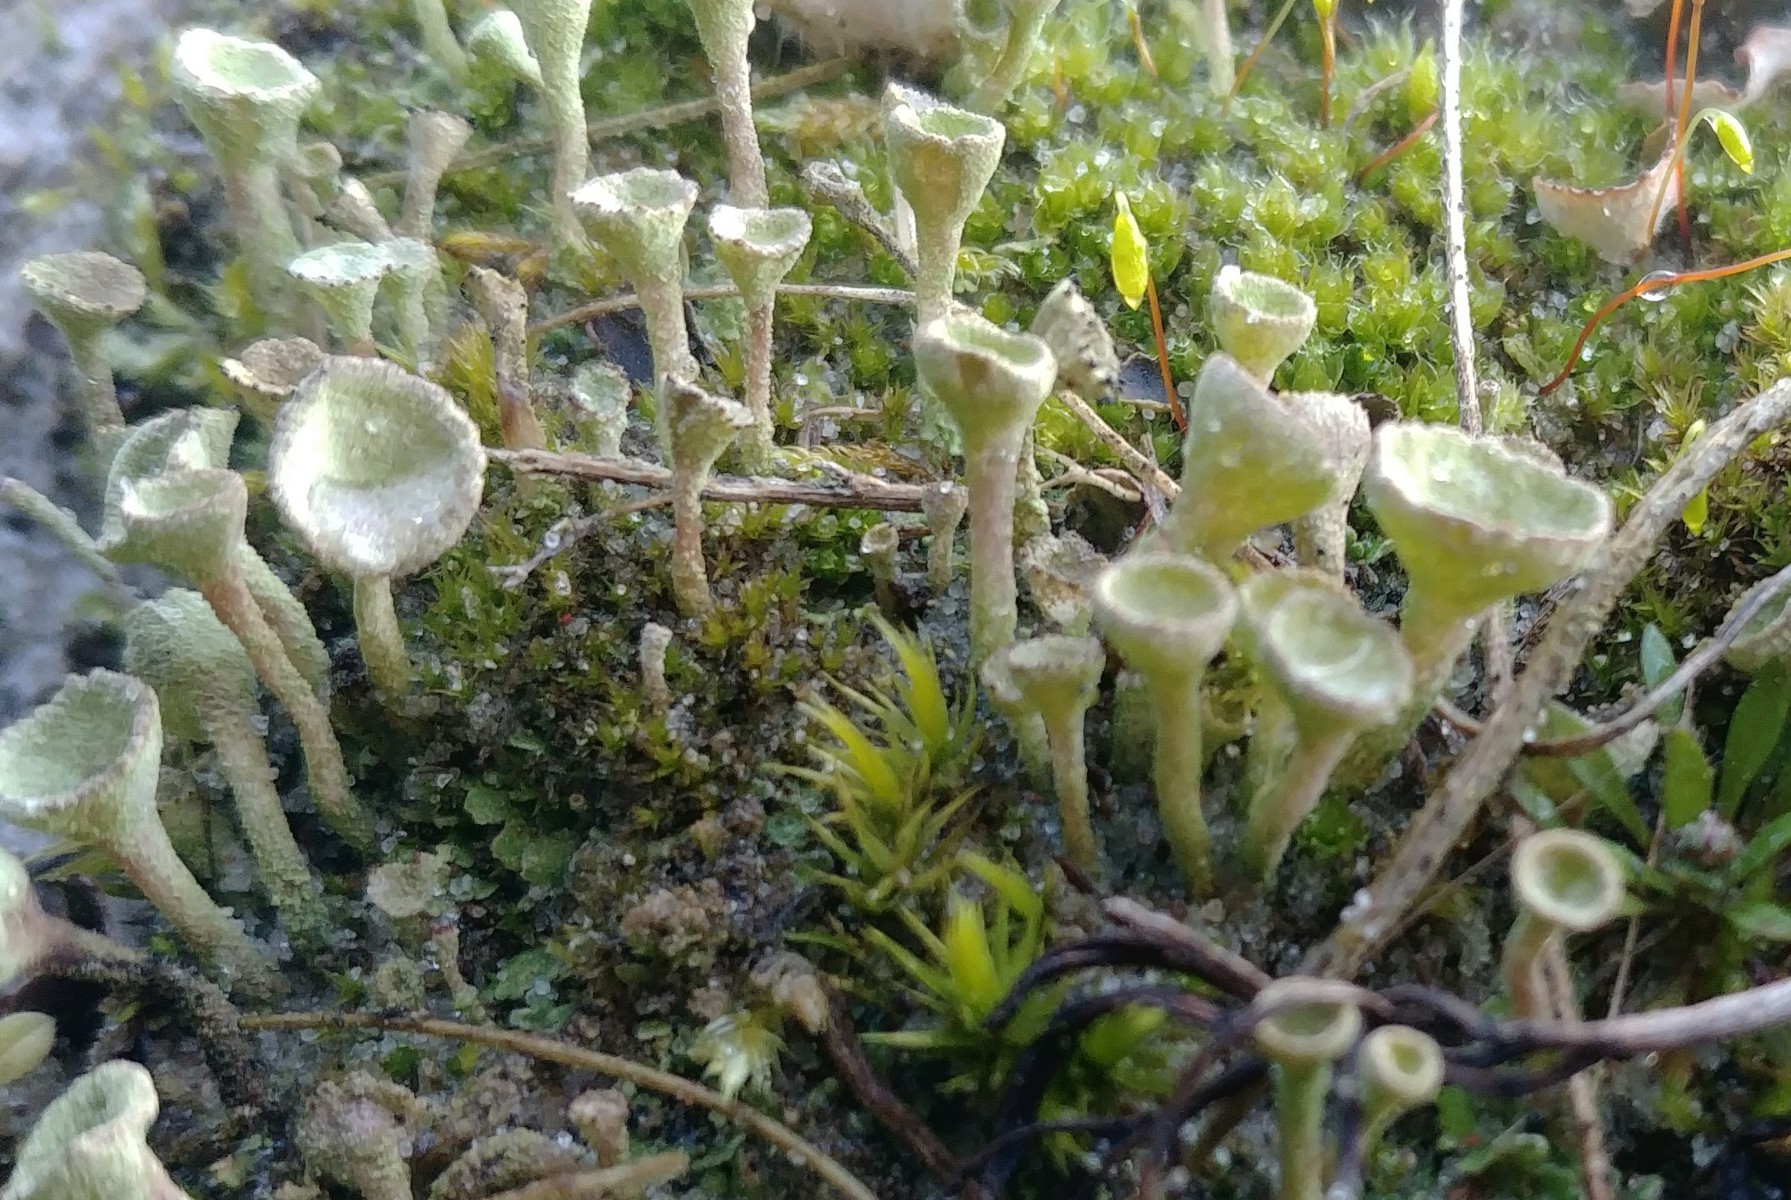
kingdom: Fungi
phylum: Ascomycota
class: Lecanoromycetes
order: Lecanorales
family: Cladoniaceae
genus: Cladonia
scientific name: Cladonia fimbriata
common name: bleggrøn bægerlav
